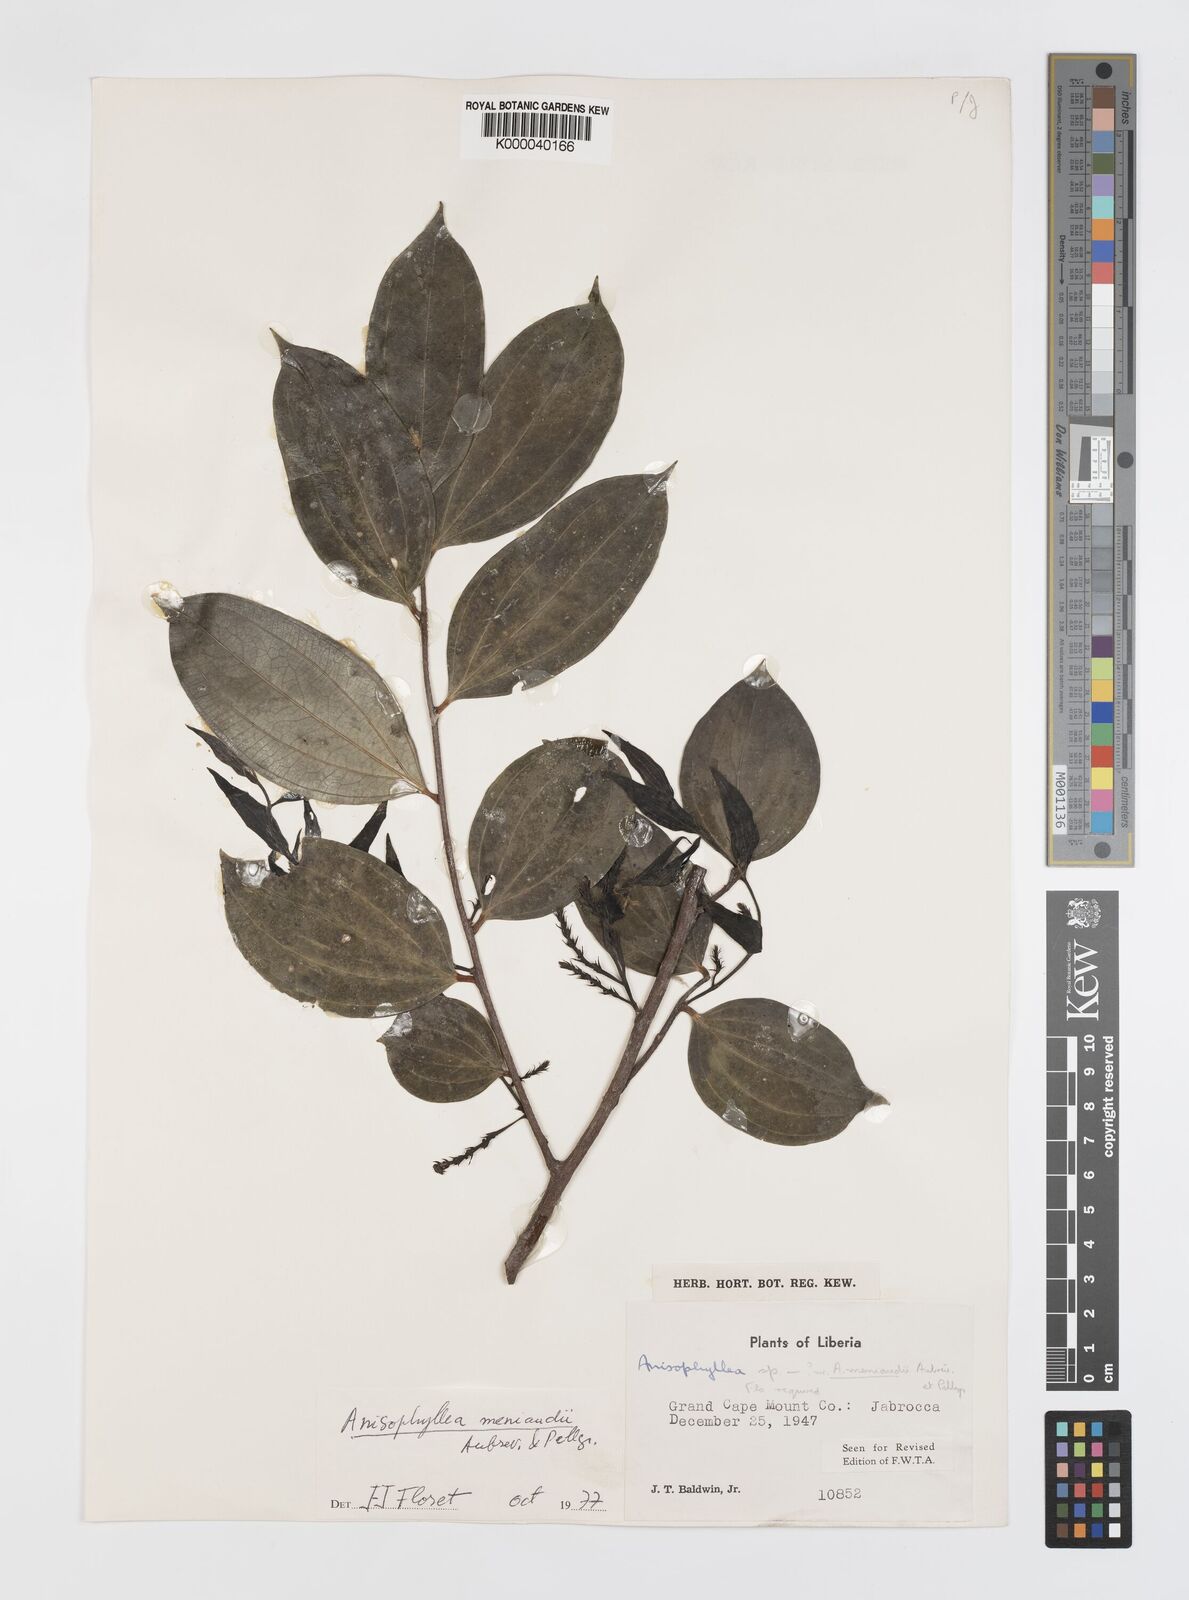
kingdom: Plantae
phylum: Tracheophyta
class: Magnoliopsida
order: Cucurbitales
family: Anisophylleaceae
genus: Anisophyllea
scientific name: Anisophyllea
